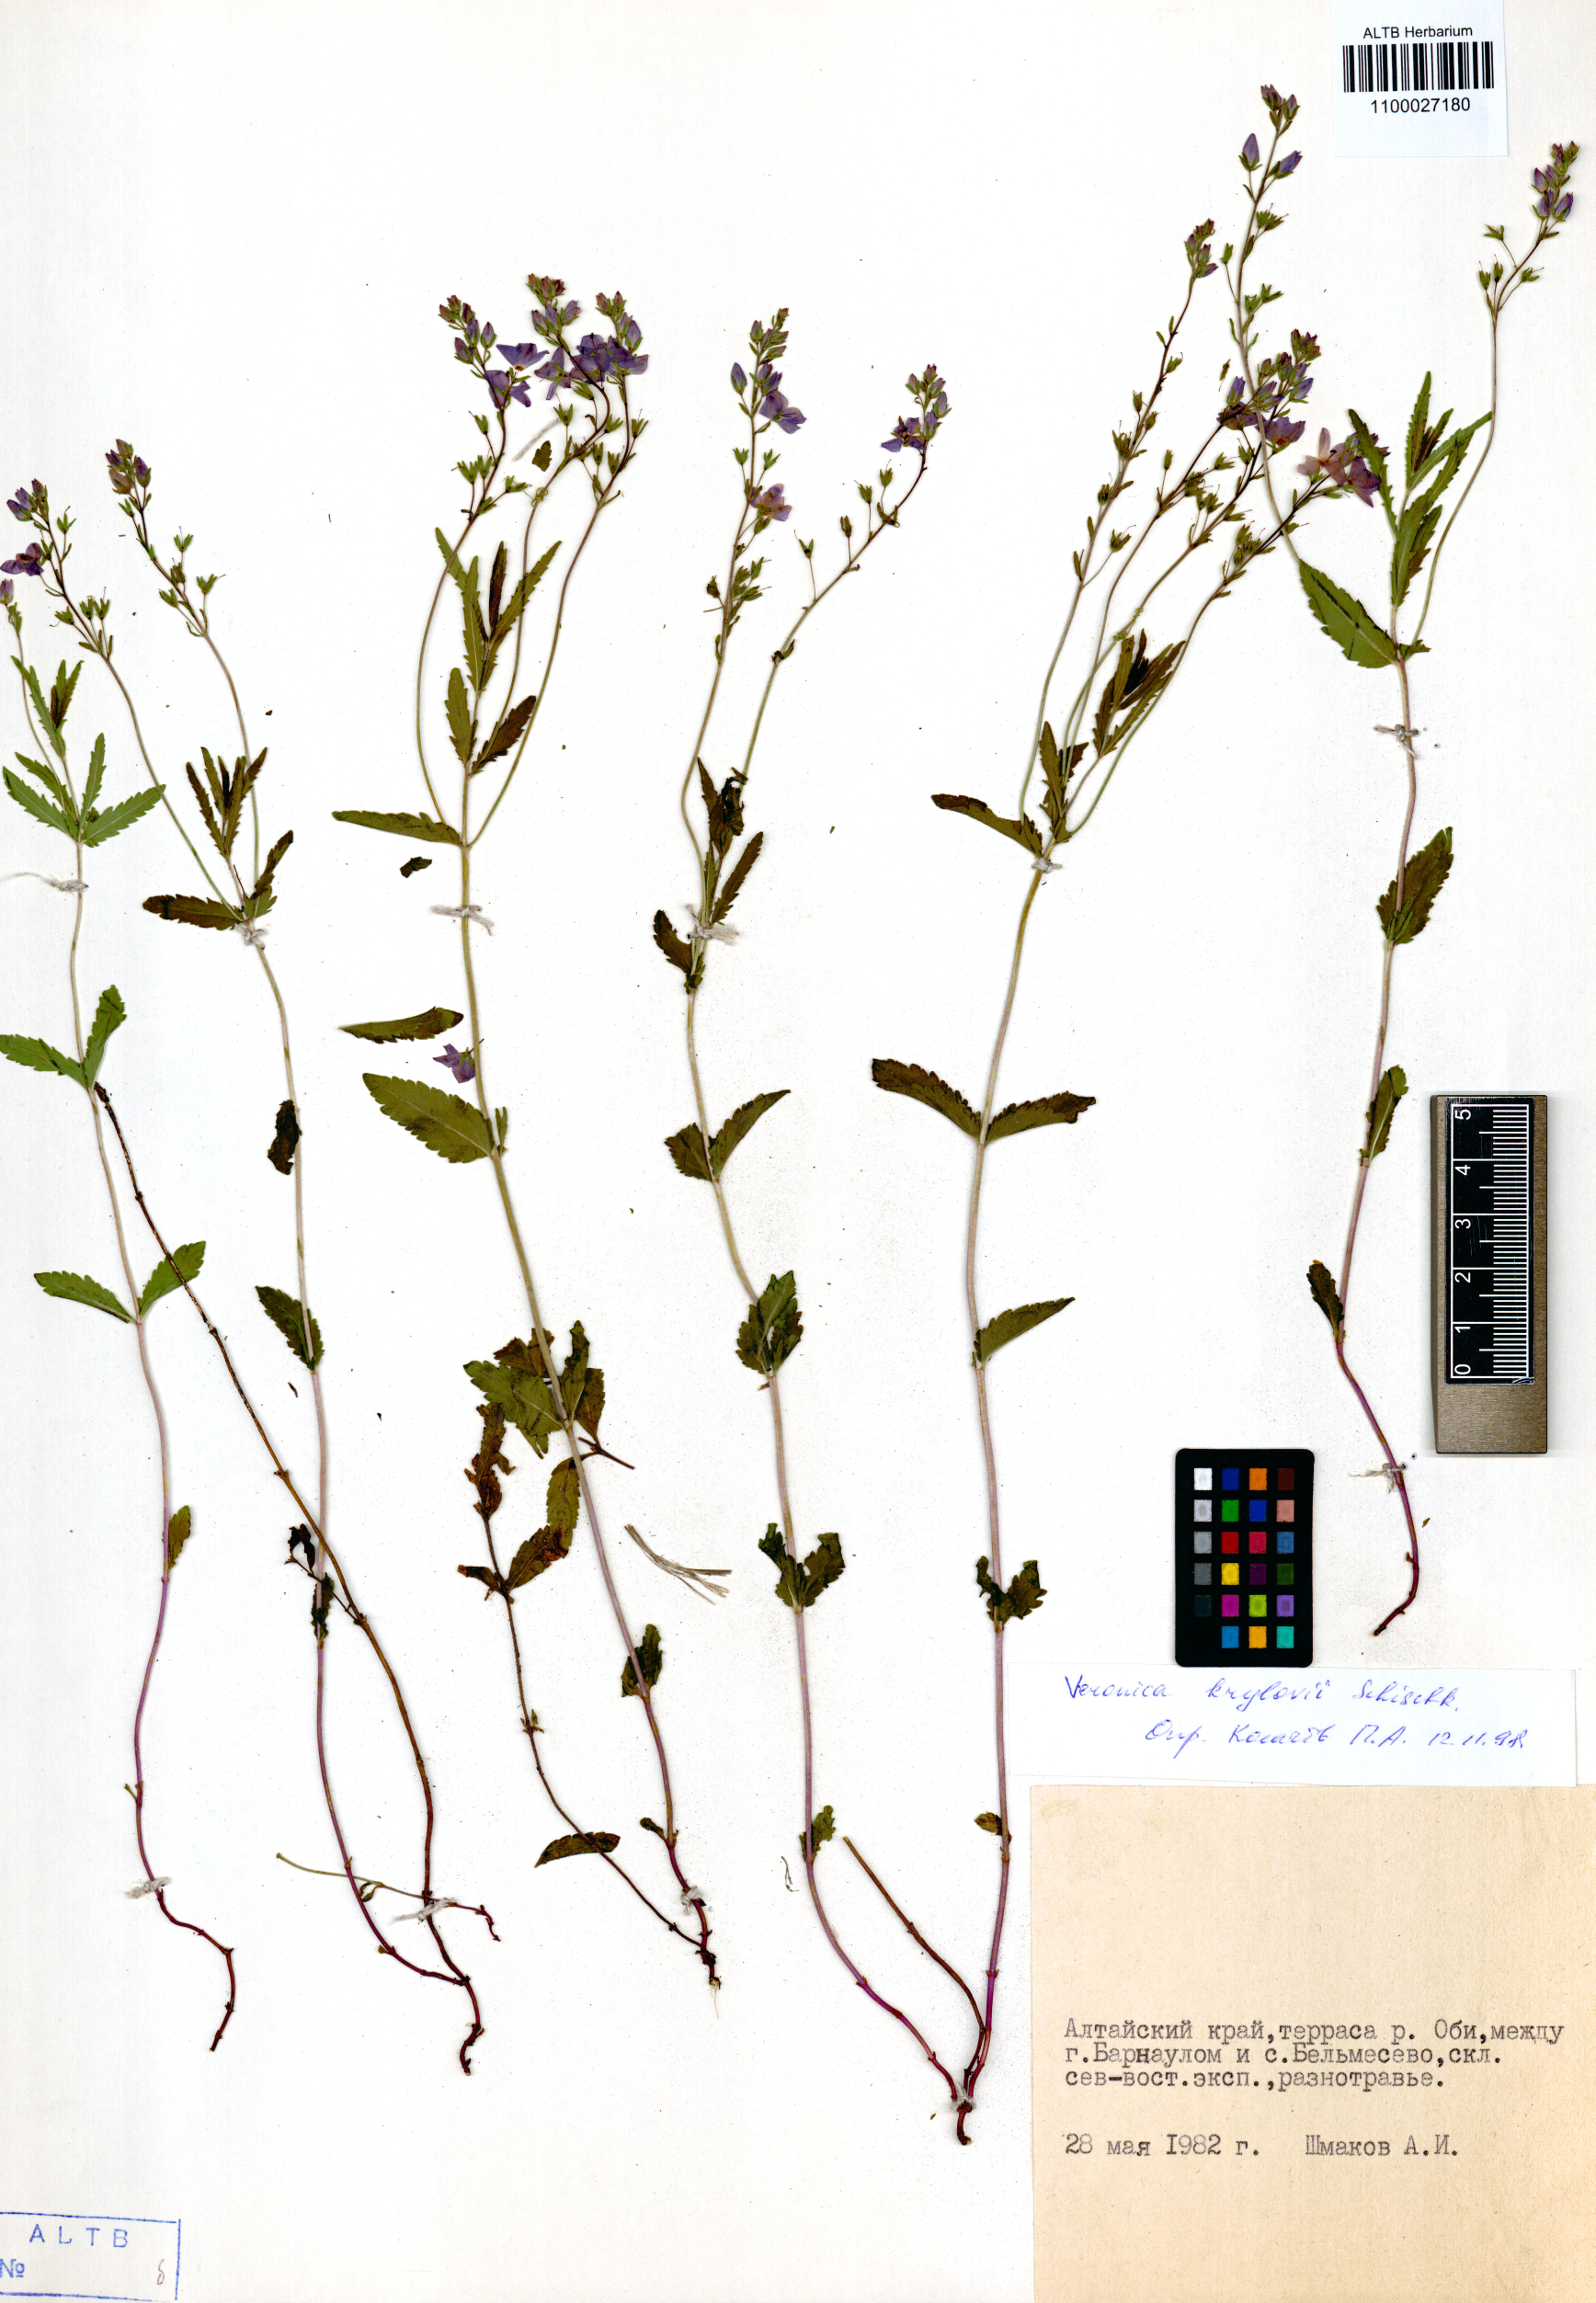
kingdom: Plantae
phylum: Tracheophyta
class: Magnoliopsida
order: Lamiales
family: Plantaginaceae
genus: Veronica
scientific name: Veronica krylovii
